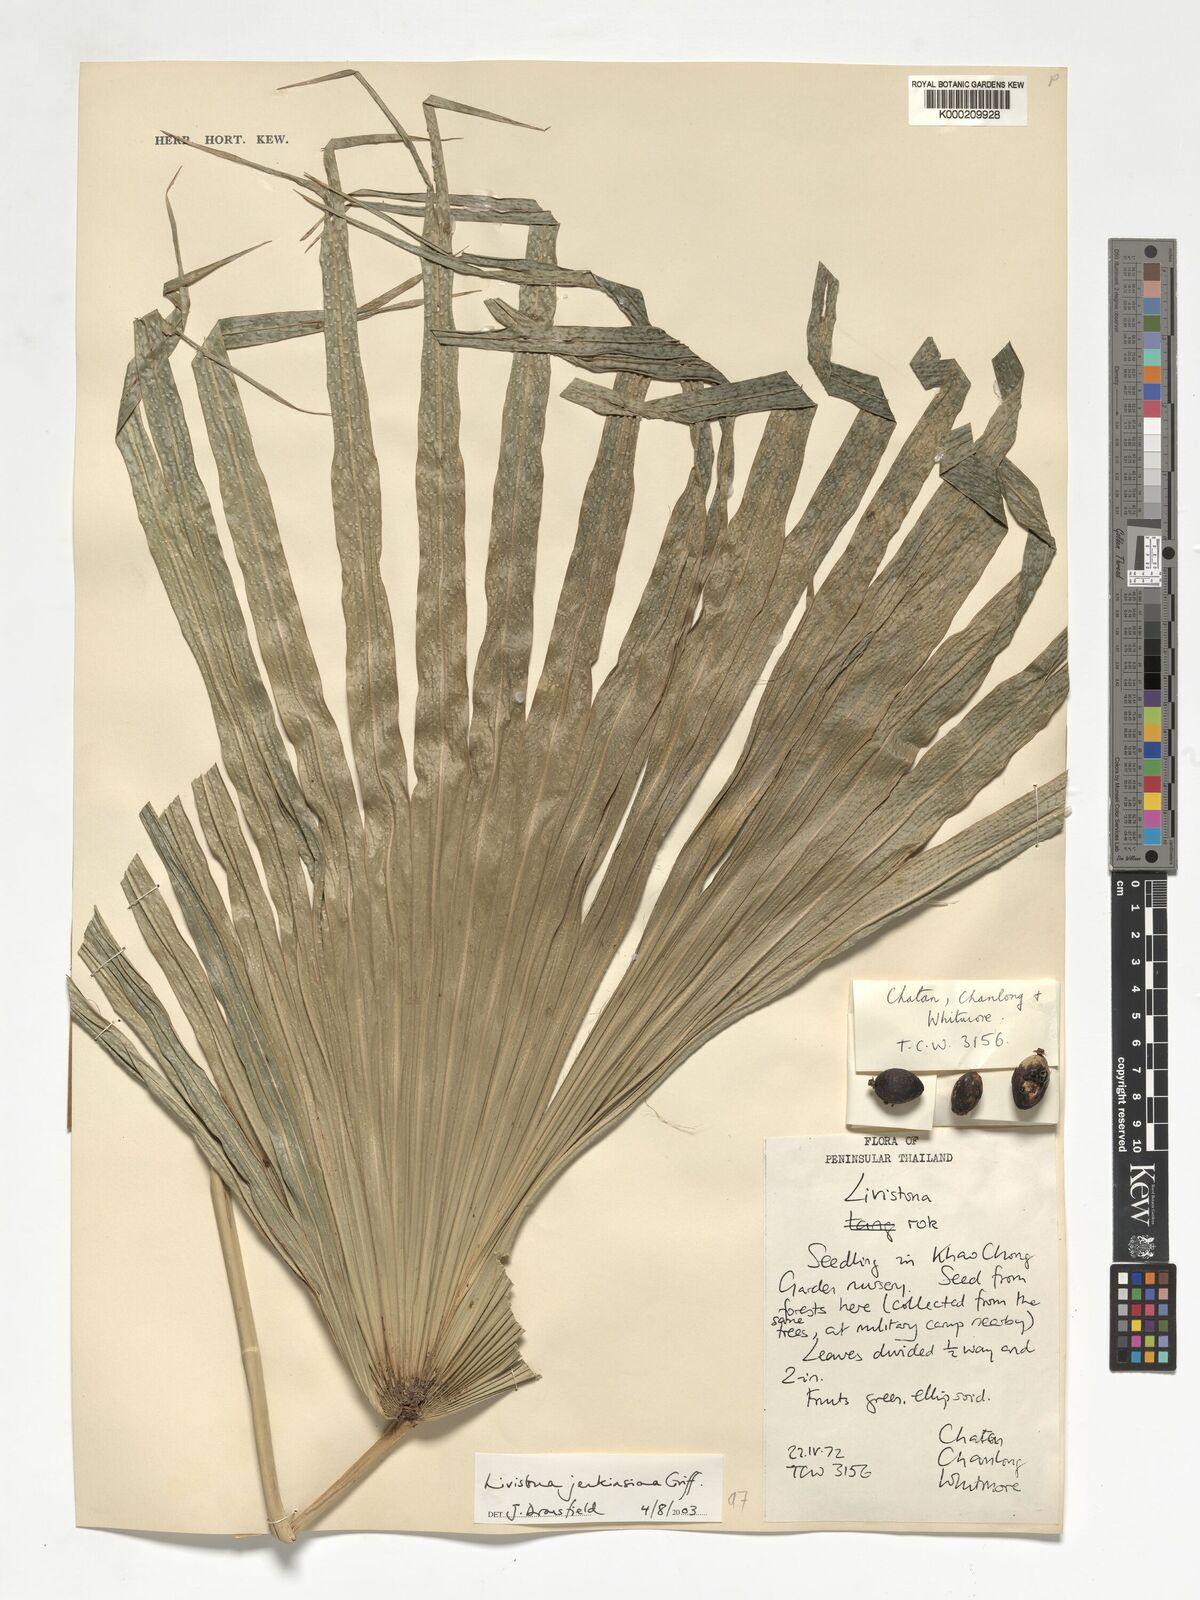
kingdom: Plantae
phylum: Tracheophyta
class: Liliopsida
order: Arecales
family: Arecaceae
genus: Livistona
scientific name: Livistona jenkinsiana
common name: Himalayan fan palm
